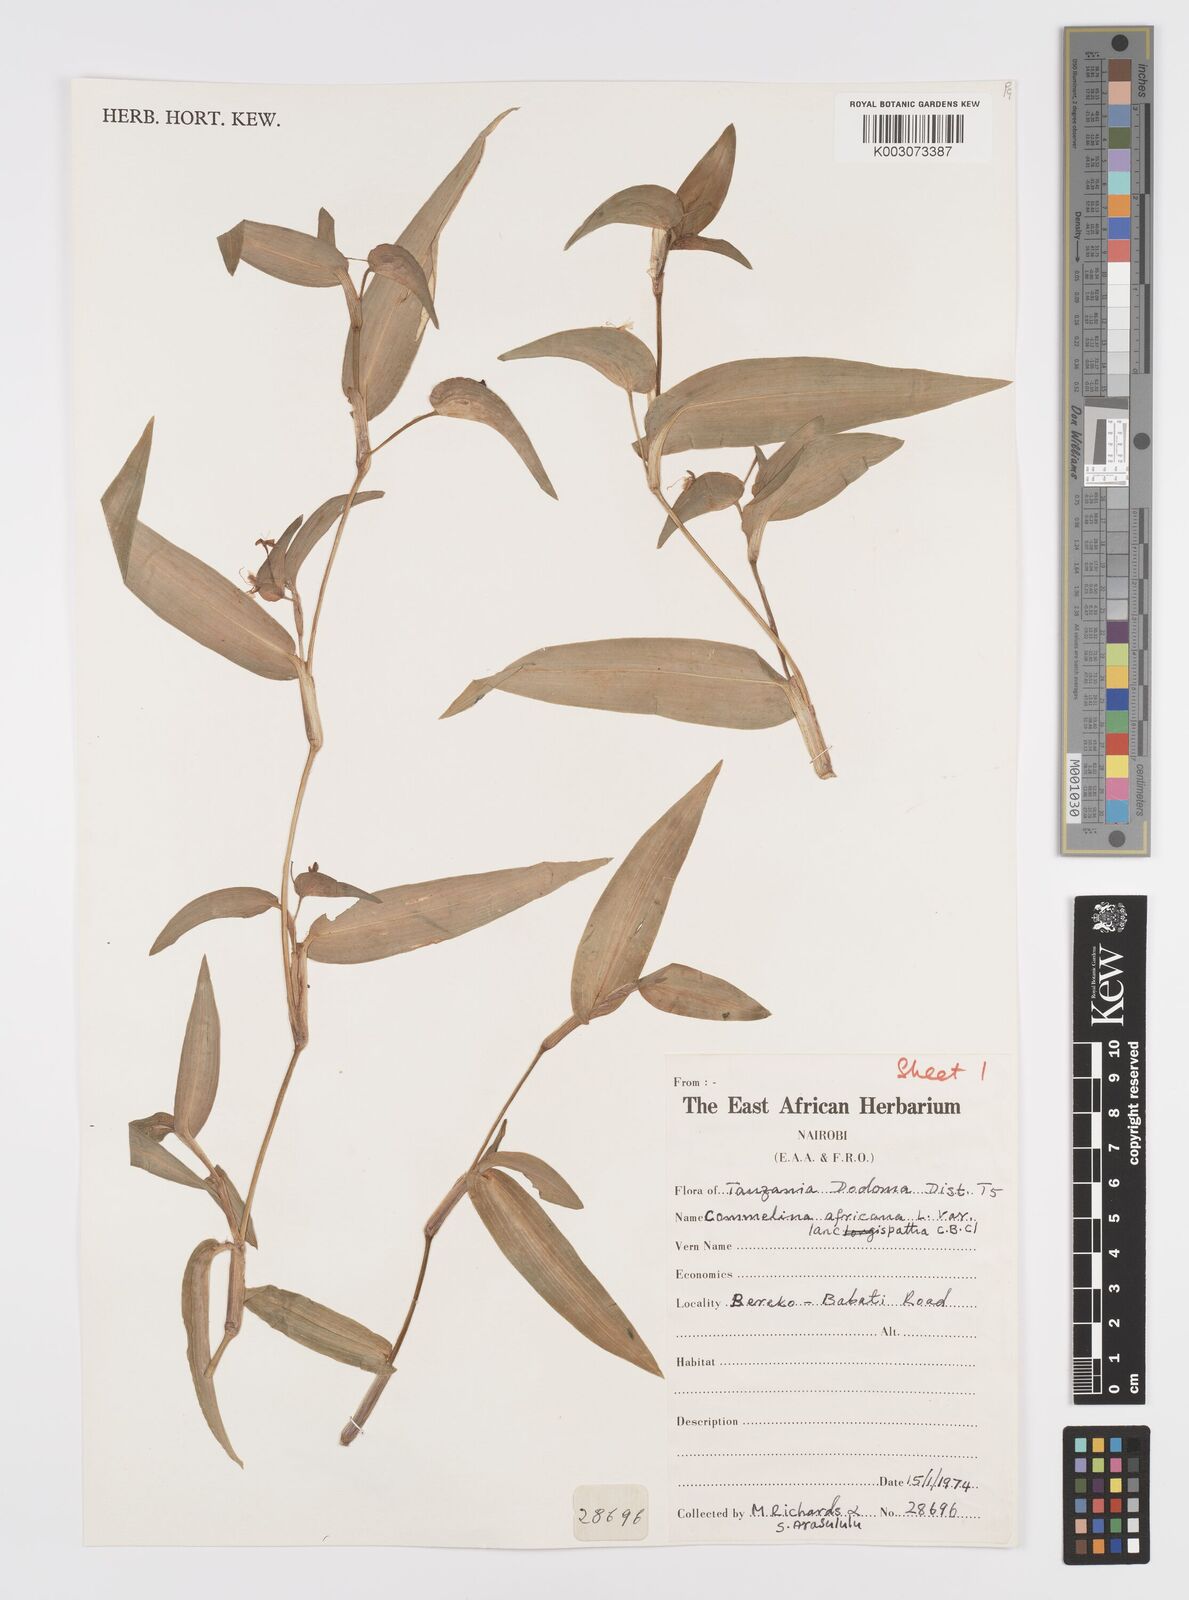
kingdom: Plantae
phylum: Tracheophyta
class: Liliopsida
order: Commelinales
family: Commelinaceae
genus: Commelina
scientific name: Commelina africana
